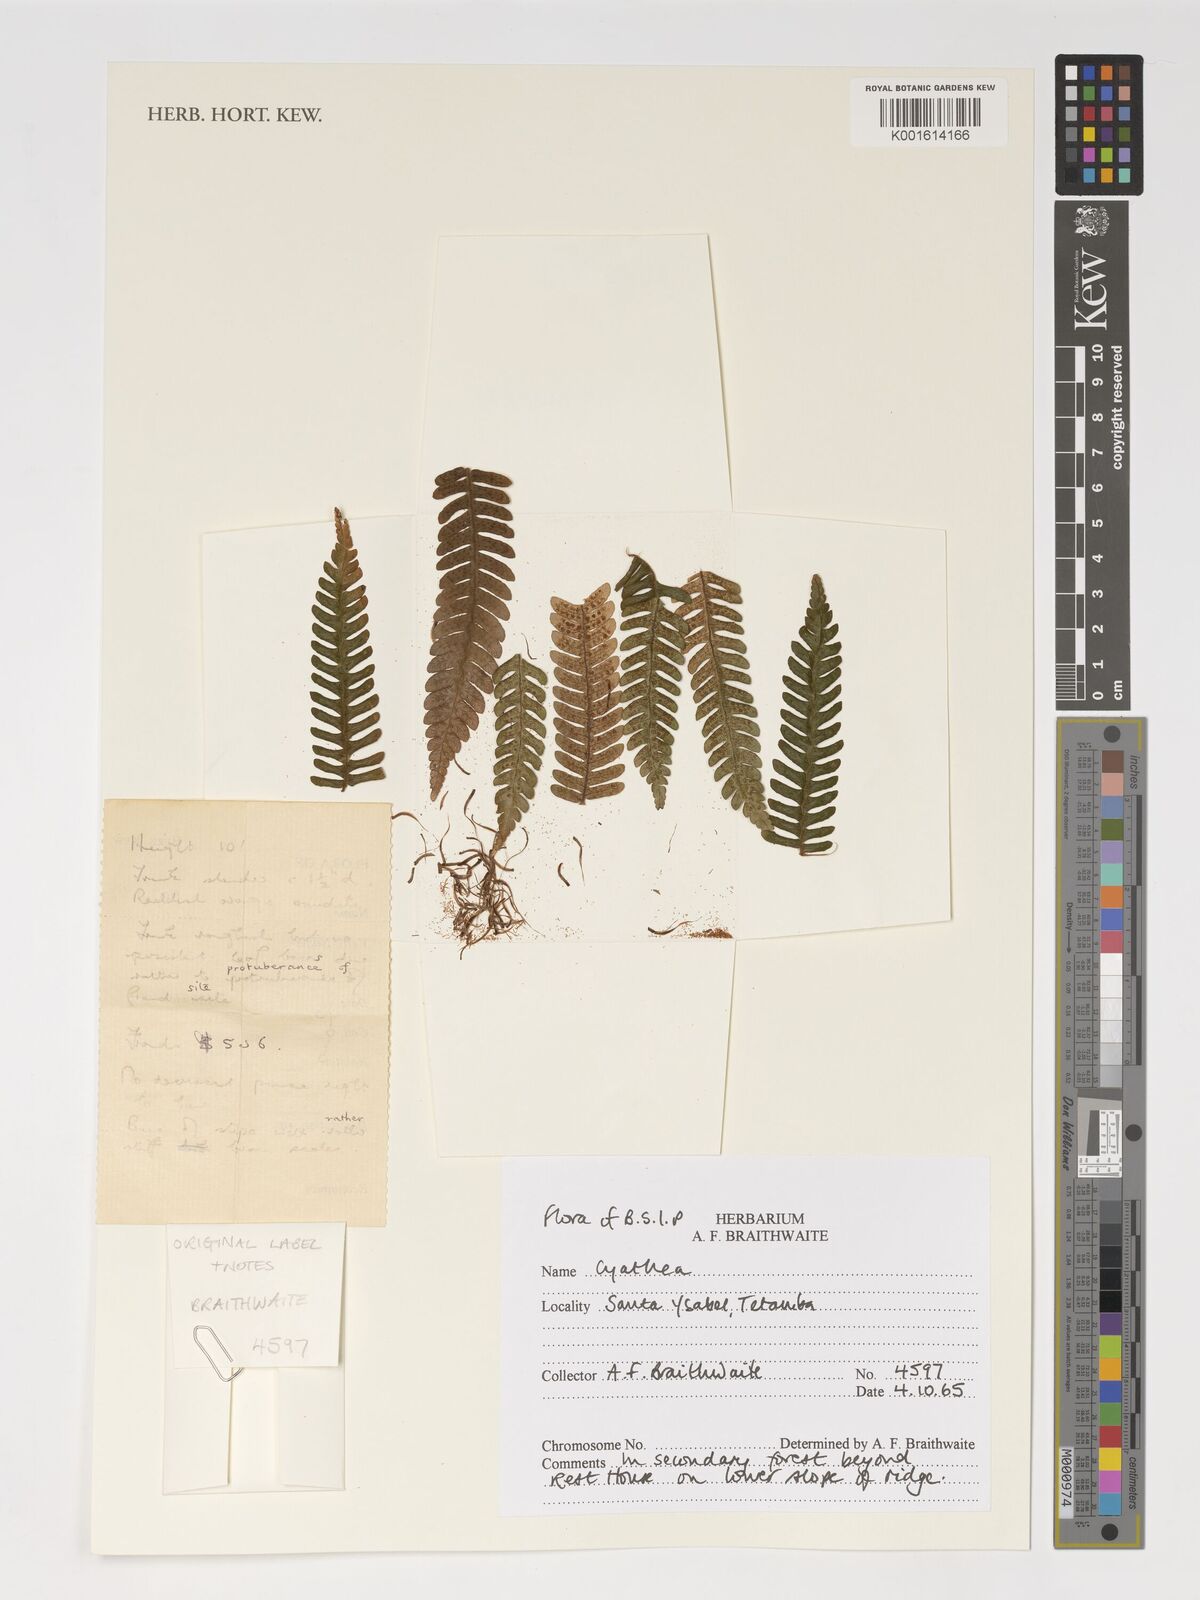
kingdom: Plantae
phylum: Tracheophyta
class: Polypodiopsida
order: Cyatheales
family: Cyatheaceae
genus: Cyathea
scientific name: Cyathea
